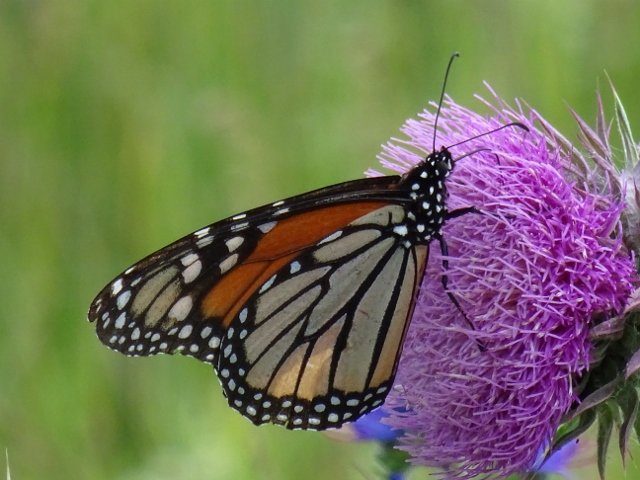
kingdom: Animalia
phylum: Arthropoda
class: Insecta
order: Lepidoptera
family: Nymphalidae
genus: Danaus
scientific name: Danaus plexippus
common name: Monarch
